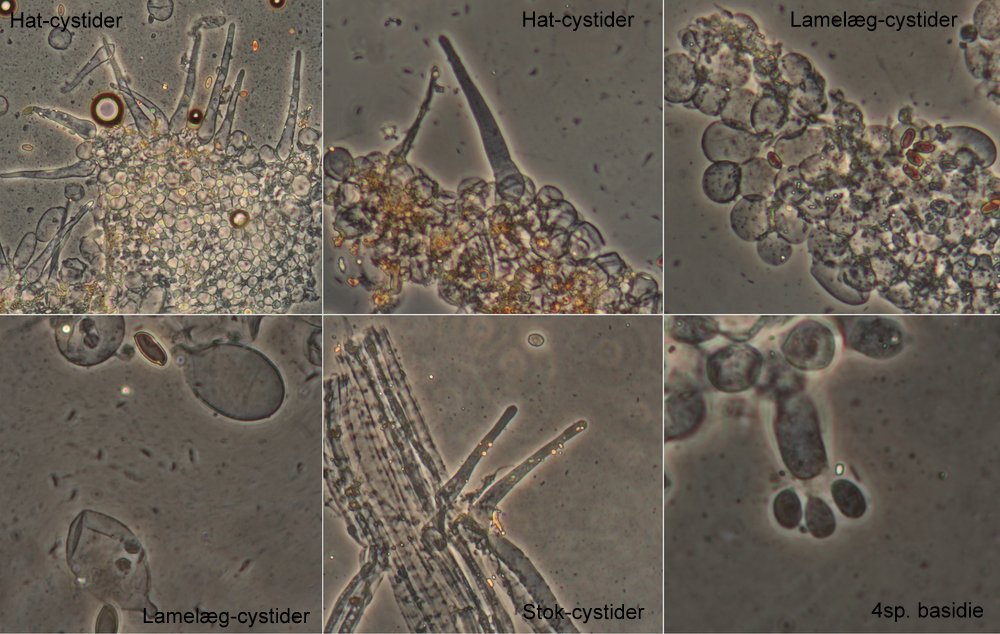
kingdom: Fungi
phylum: Basidiomycota
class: Agaricomycetes
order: Agaricales
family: Psathyrellaceae
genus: Tulosesus
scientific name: Tulosesus callinus
